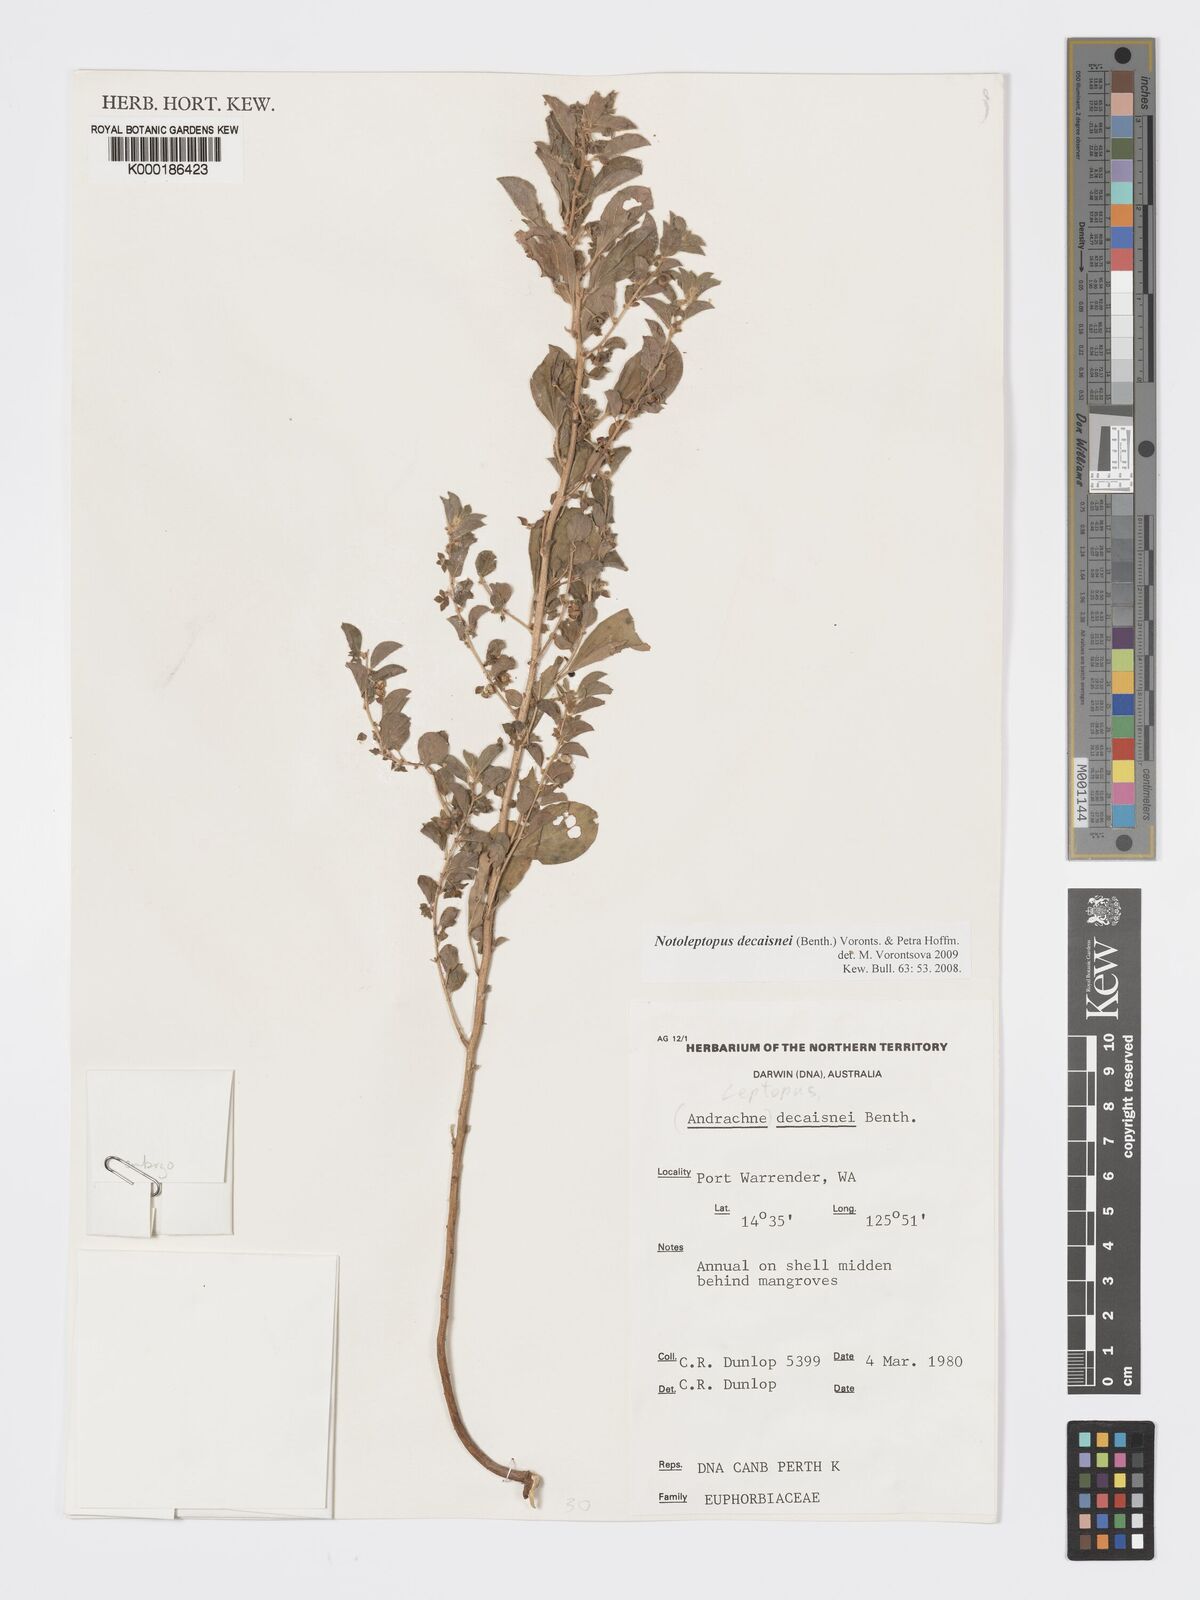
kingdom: Plantae
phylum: Tracheophyta
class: Magnoliopsida
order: Malpighiales
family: Phyllanthaceae
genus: Andrachne
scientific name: Andrachne
